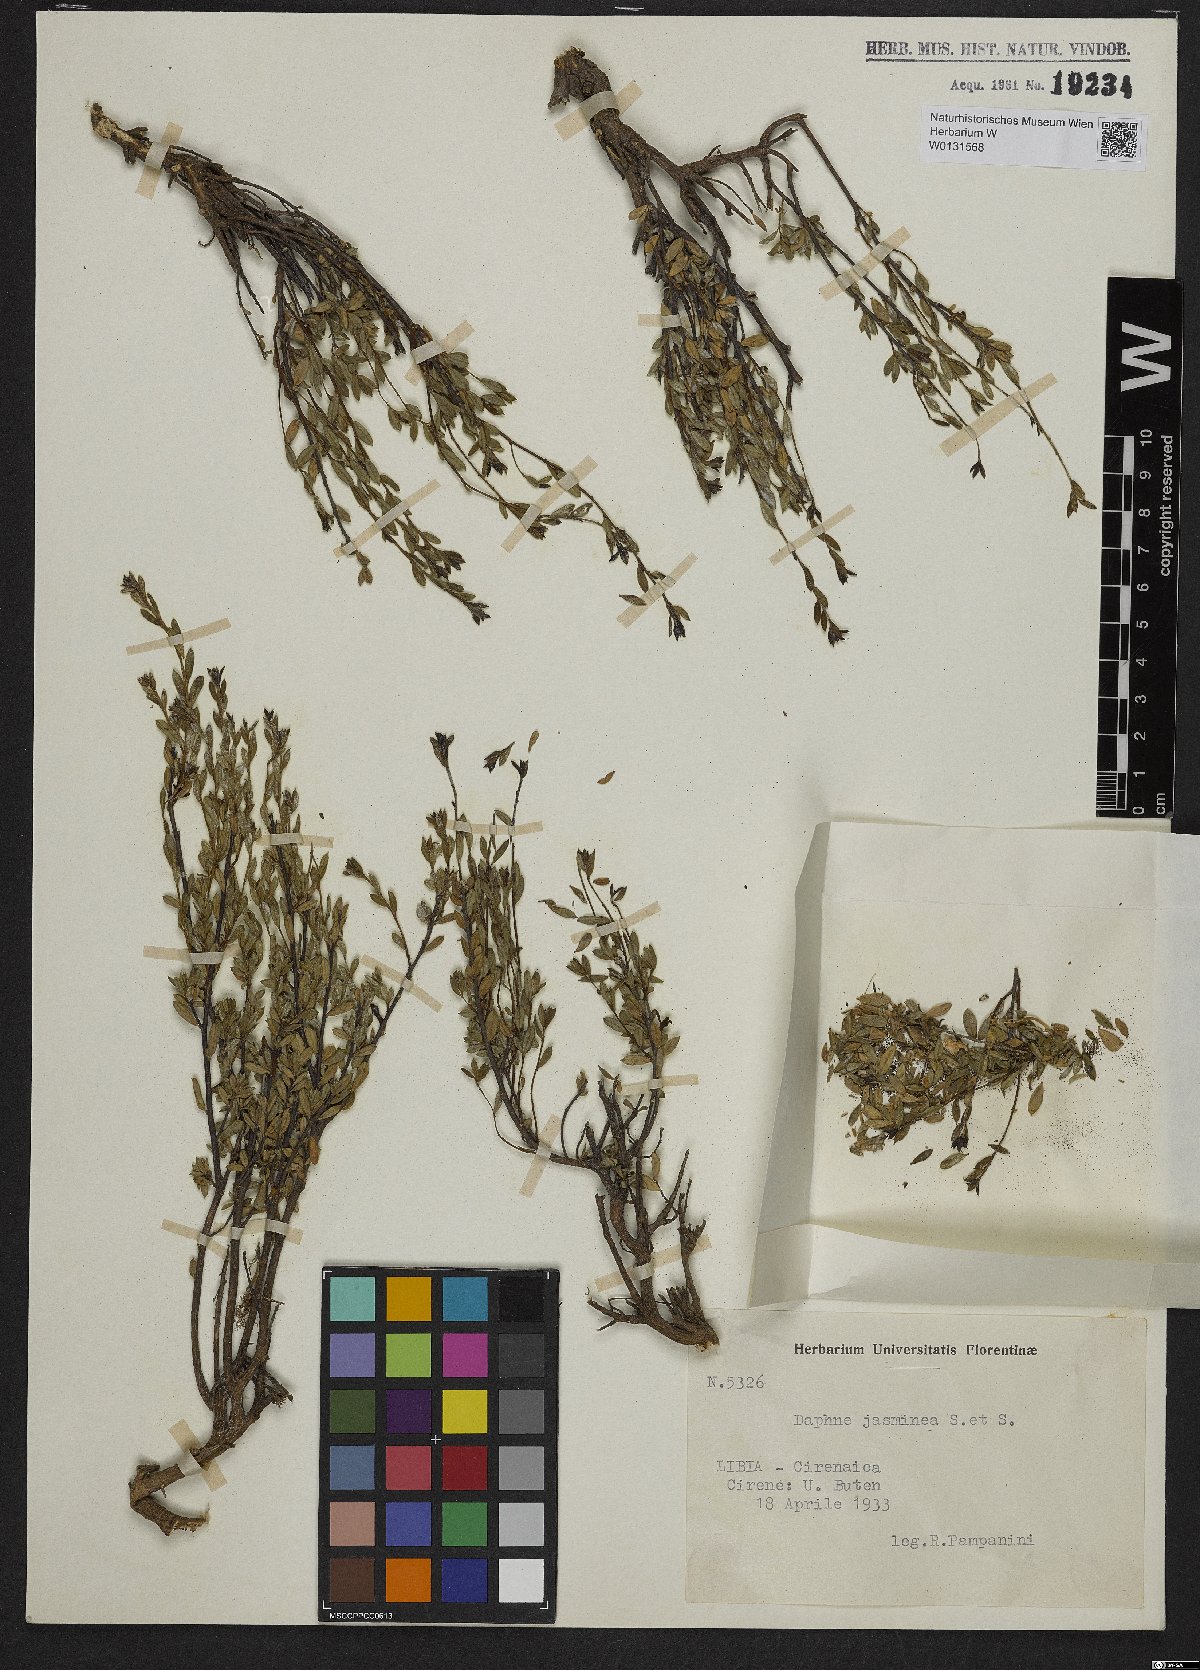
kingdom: Plantae
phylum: Tracheophyta
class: Magnoliopsida
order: Malvales
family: Thymelaeaceae
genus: Daphne
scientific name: Daphne jasminea
